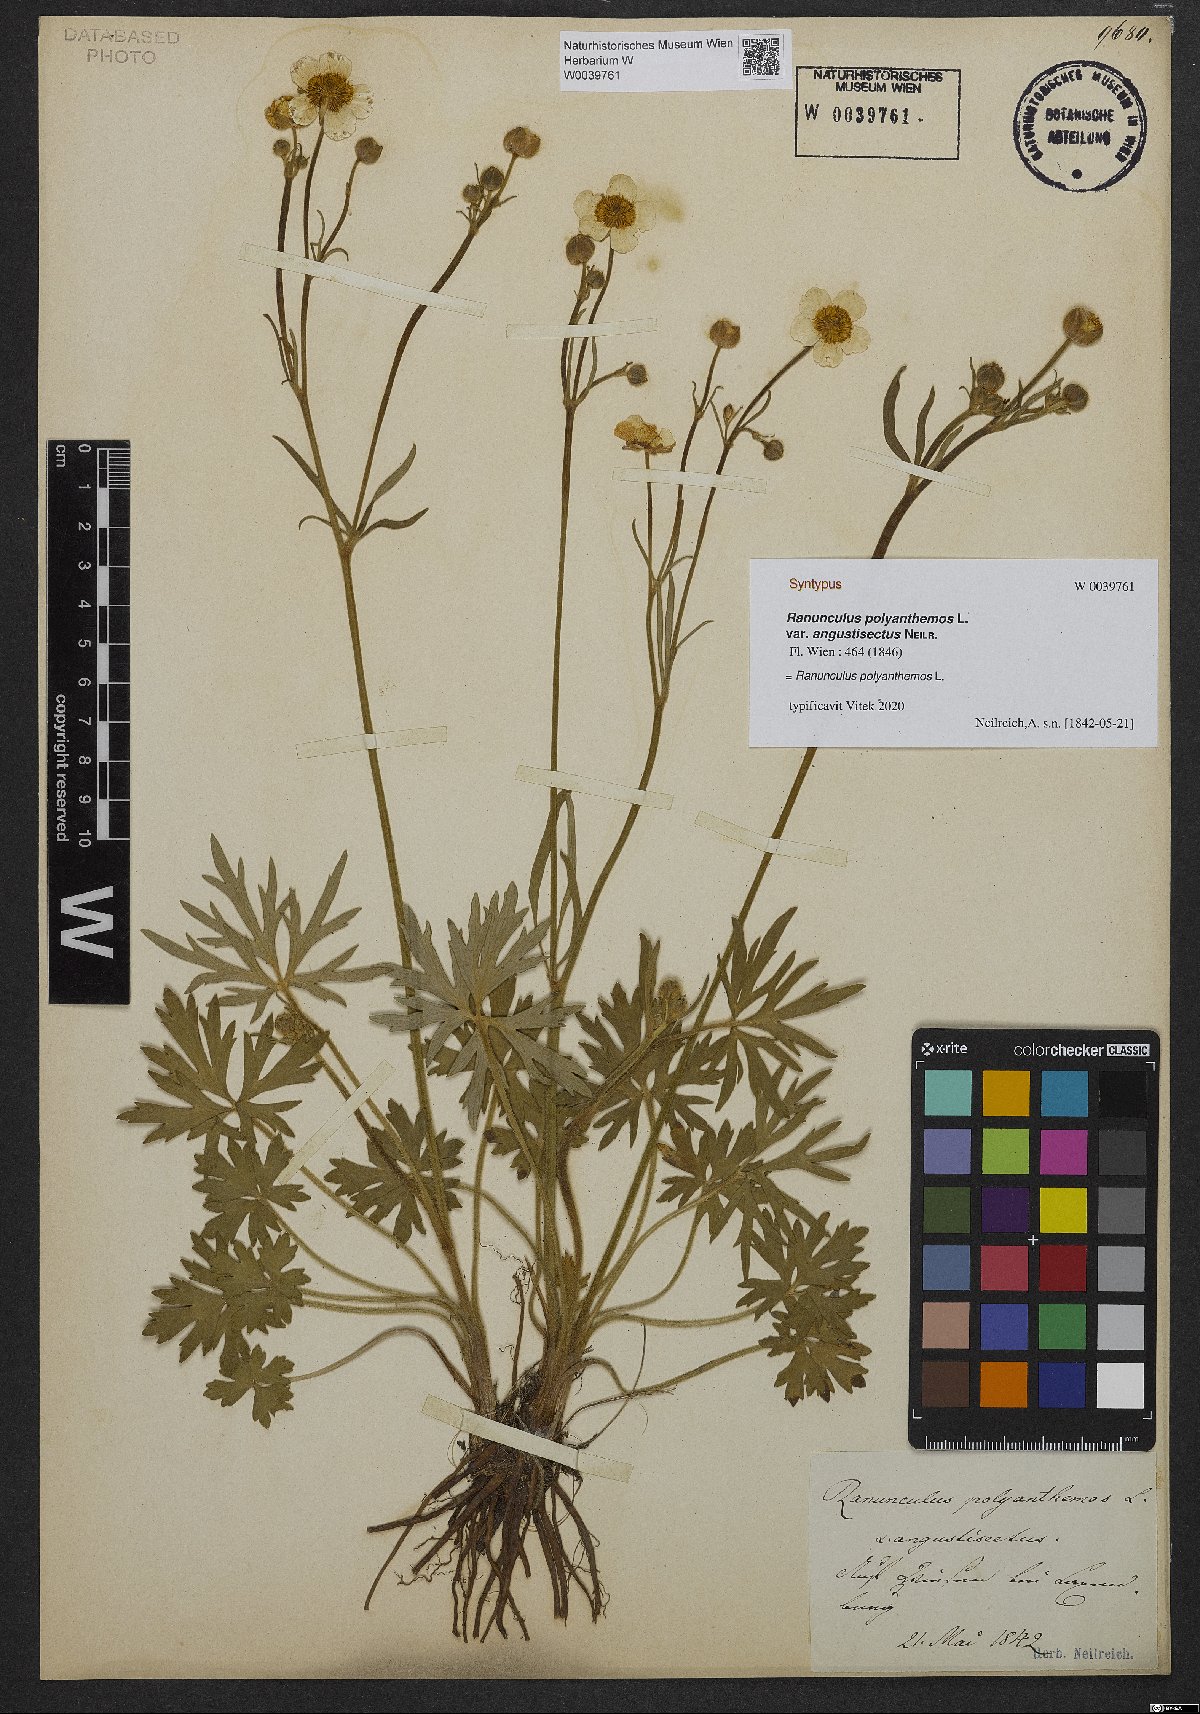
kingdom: Plantae
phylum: Tracheophyta
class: Magnoliopsida
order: Ranunculales
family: Ranunculaceae
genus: Ranunculus
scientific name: Ranunculus polyanthemos
